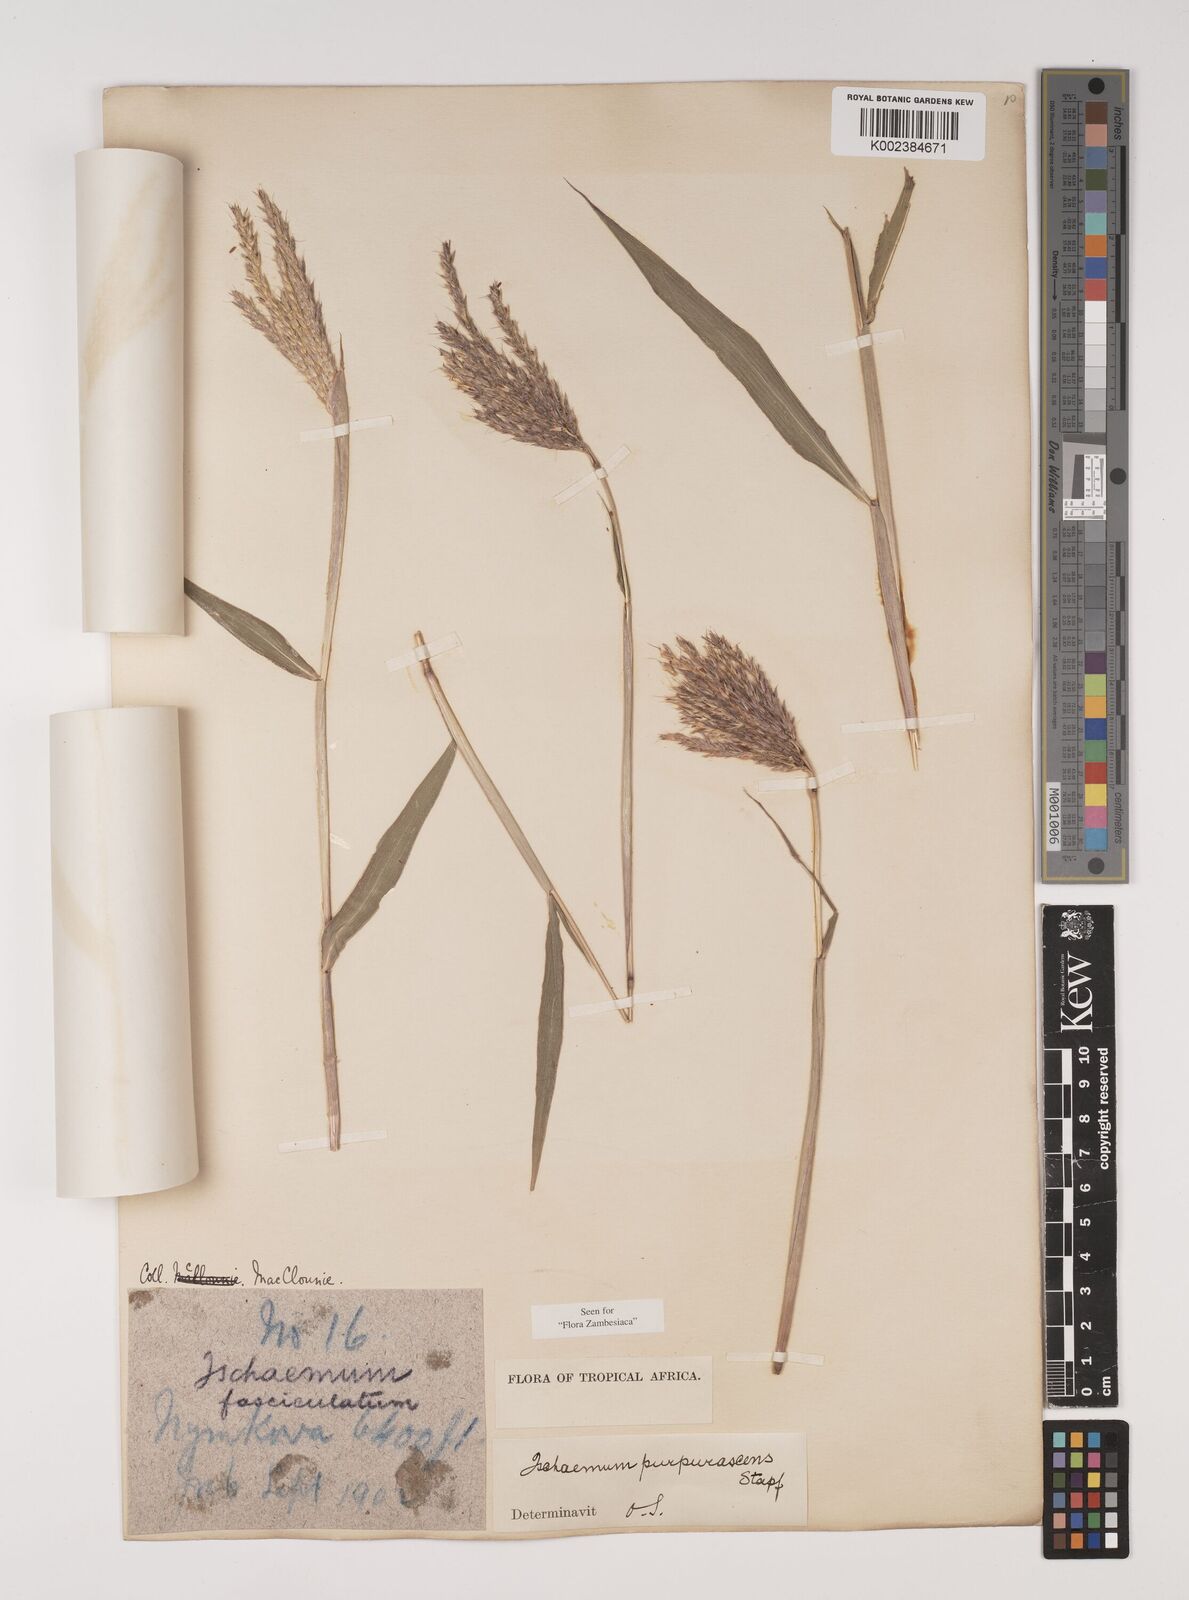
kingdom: Plantae
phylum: Tracheophyta
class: Liliopsida
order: Poales
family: Poaceae
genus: Ischaemum
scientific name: Ischaemum
